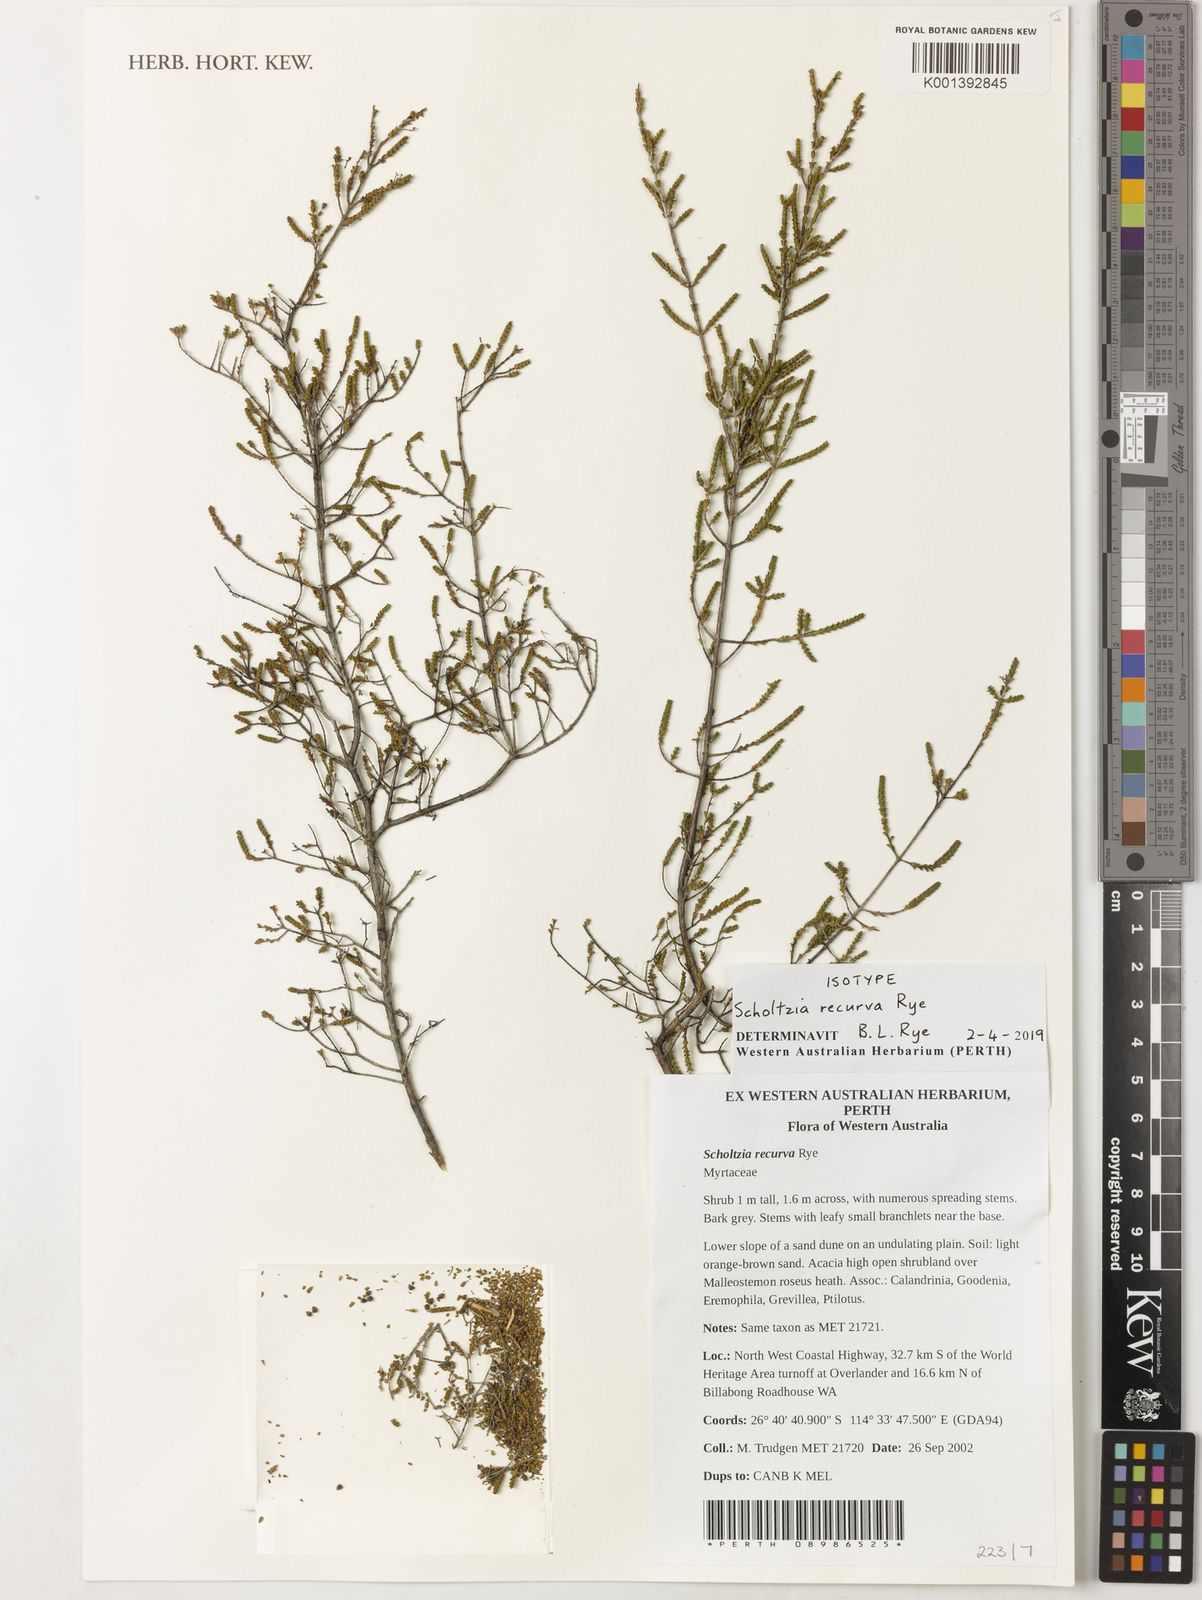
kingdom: Plantae
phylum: Tracheophyta
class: Magnoliopsida
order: Myrtales
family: Myrtaceae
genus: Scholtzia
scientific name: Scholtzia
